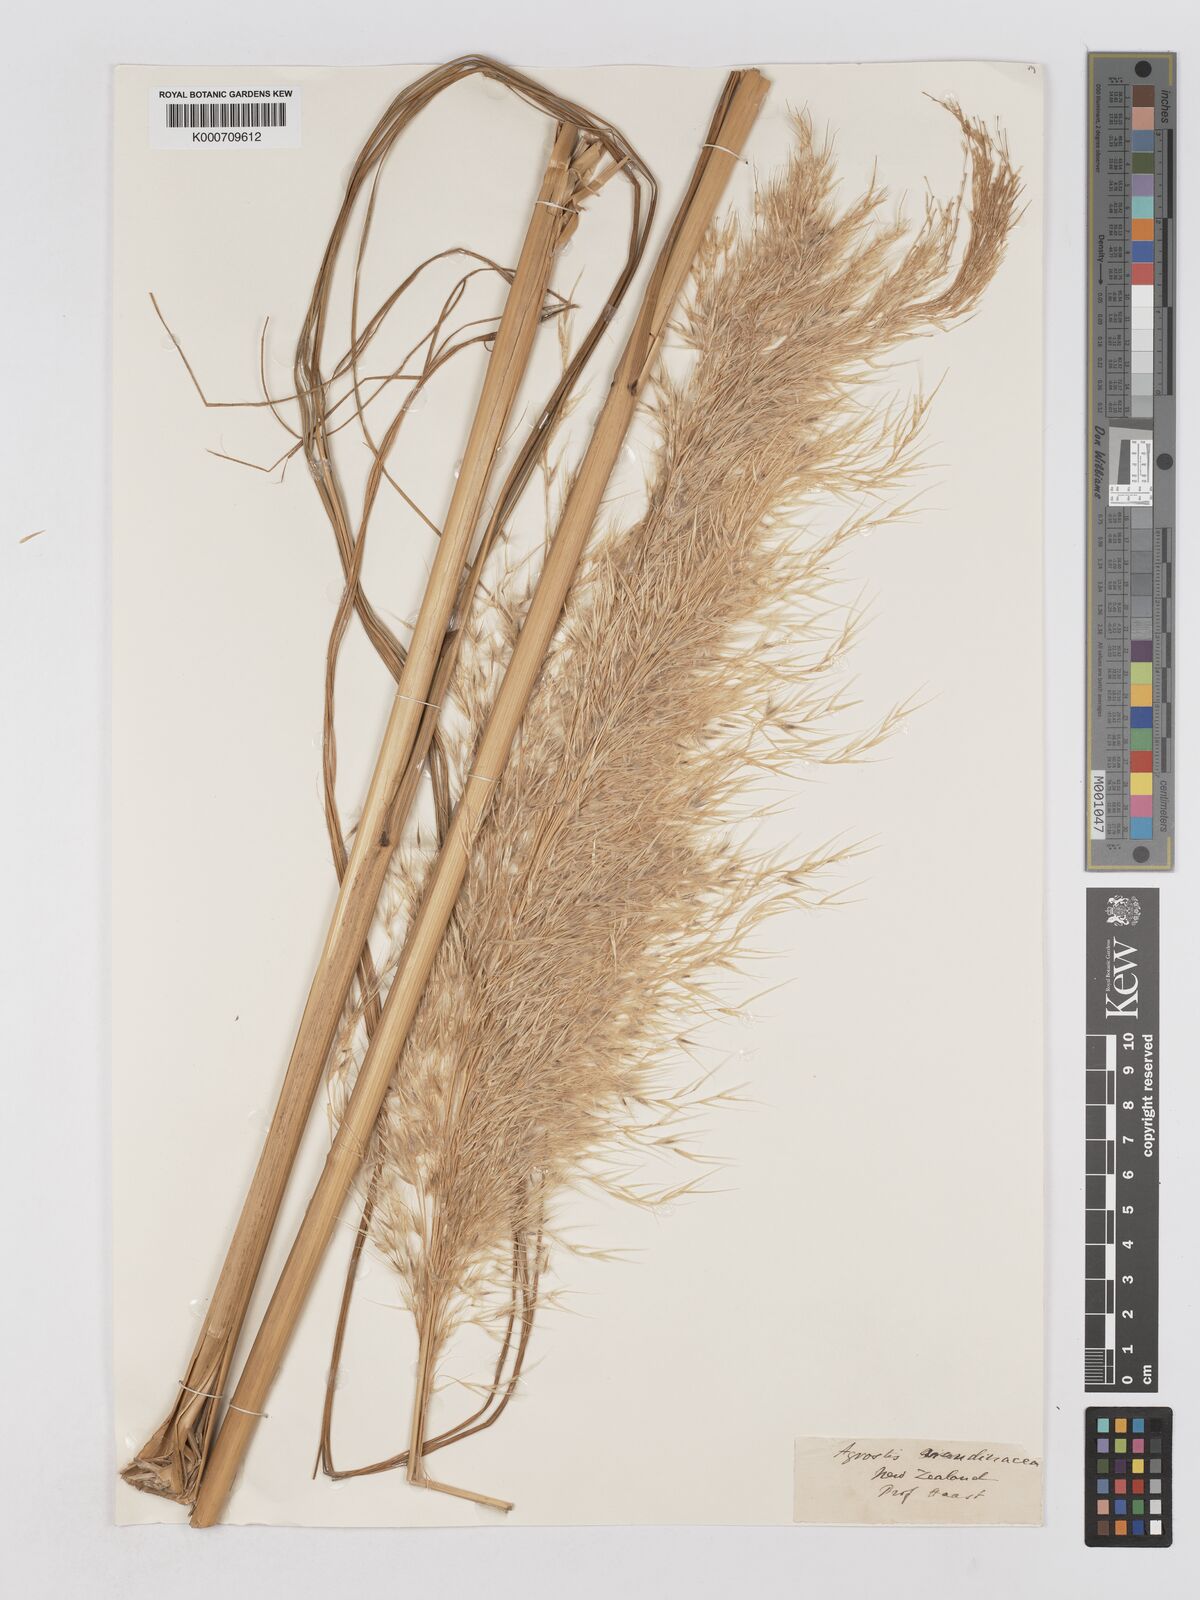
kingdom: Plantae
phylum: Tracheophyta
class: Liliopsida
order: Poales
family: Poaceae
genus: Austroderia
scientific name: Austroderia richardii
